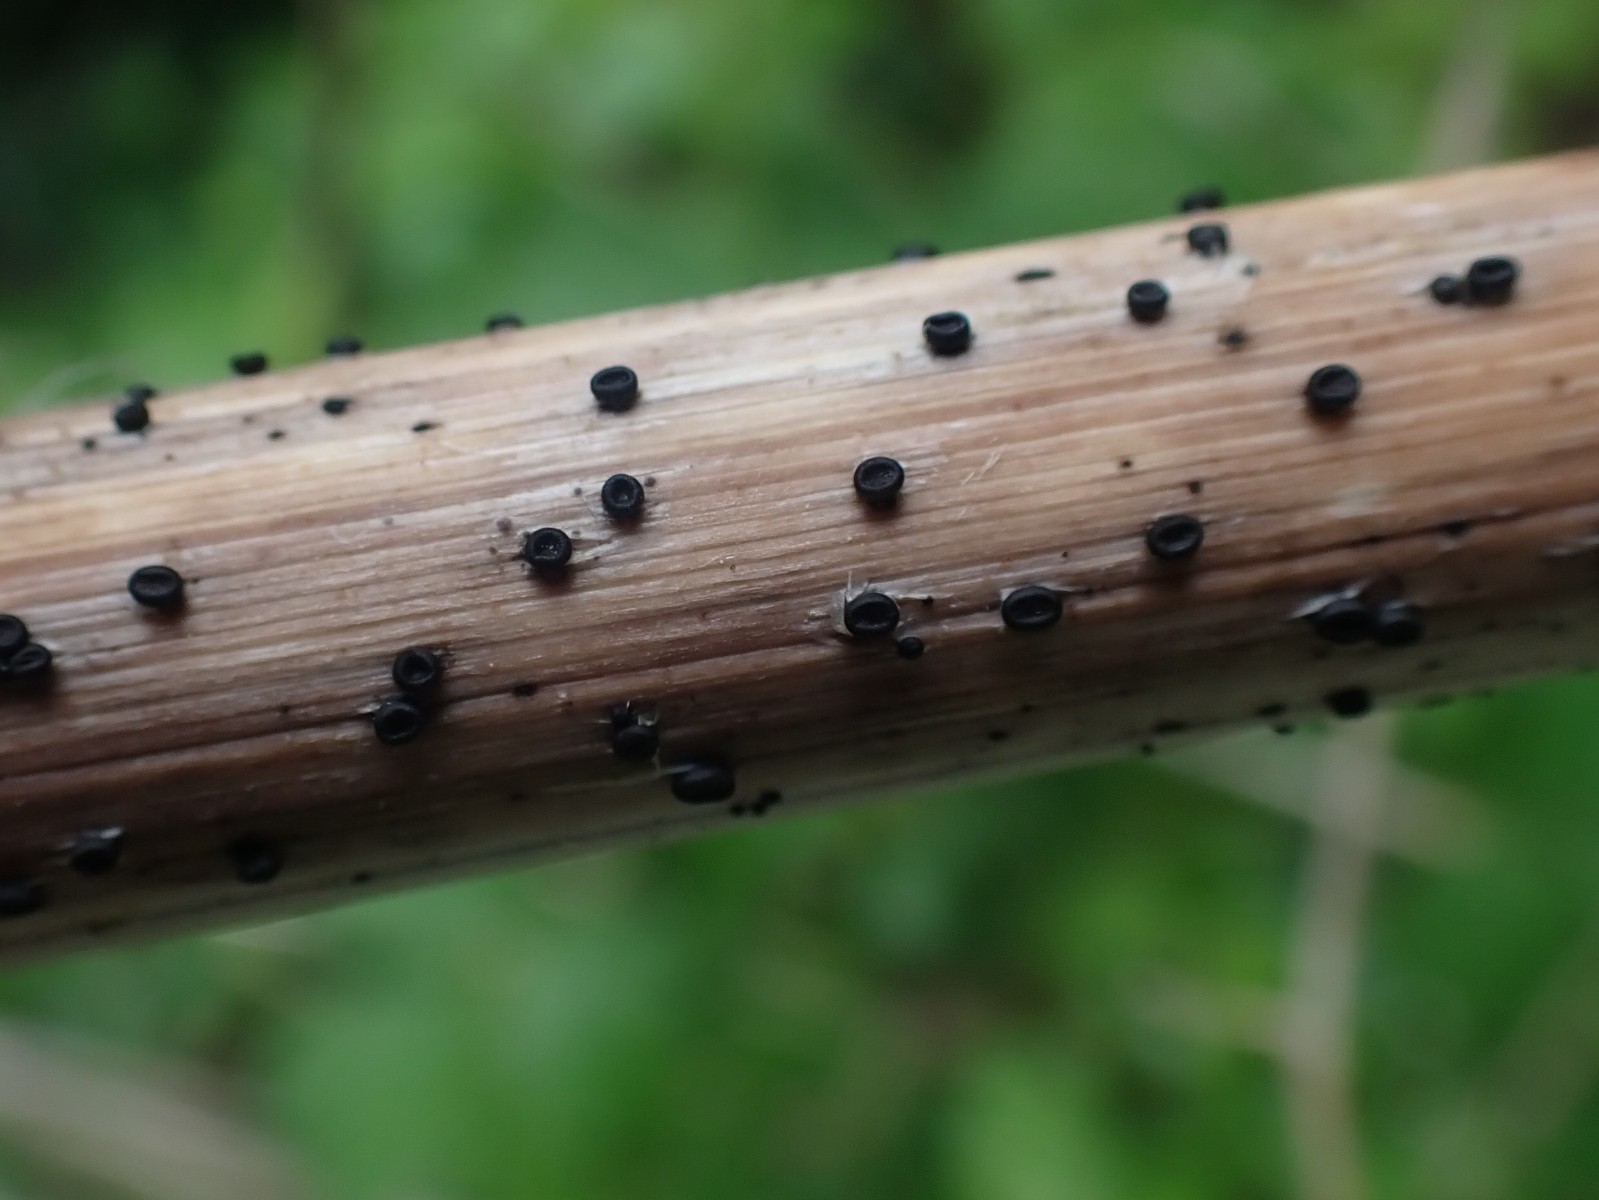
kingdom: Fungi
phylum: Ascomycota
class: Leotiomycetes
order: Helotiales
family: Heterosphaeriaceae
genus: Heterosphaeria
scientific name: Heterosphaeria
